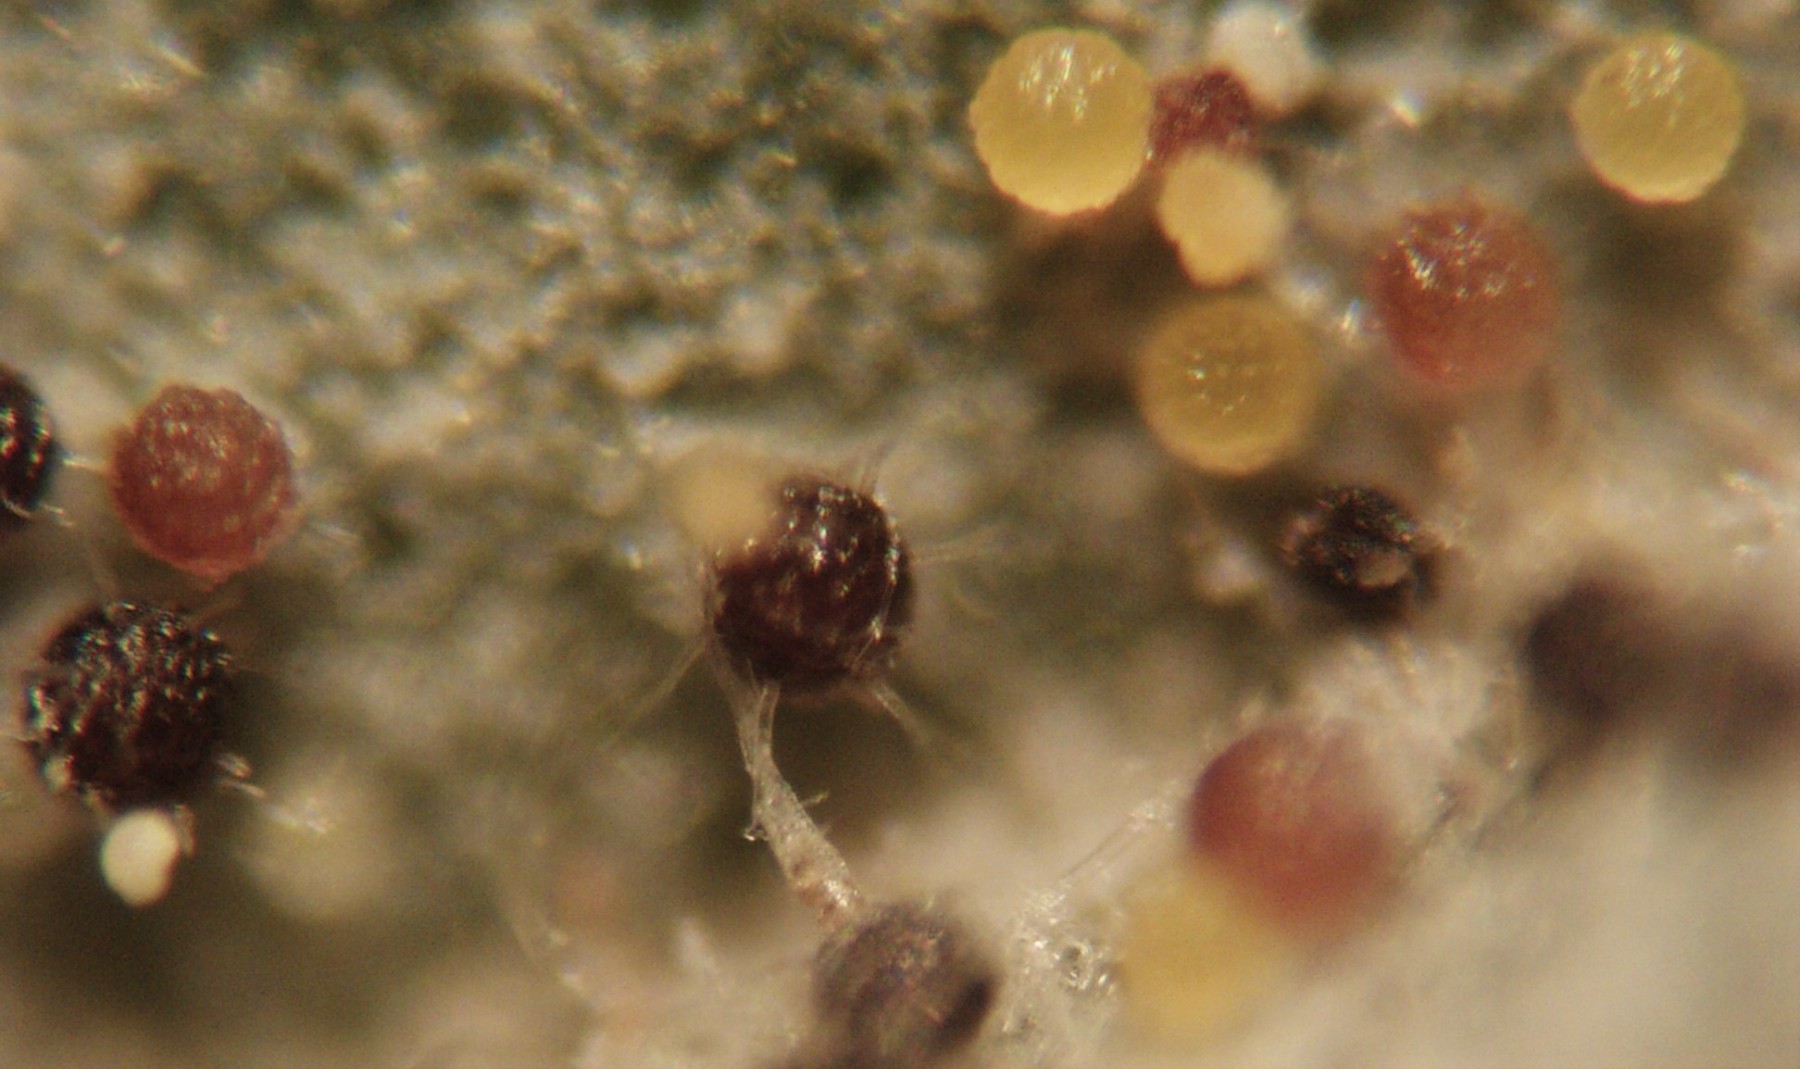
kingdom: Fungi
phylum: Ascomycota
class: Leotiomycetes
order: Helotiales
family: Erysiphaceae
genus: Microsphaera
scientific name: Microsphaera grossulariae
